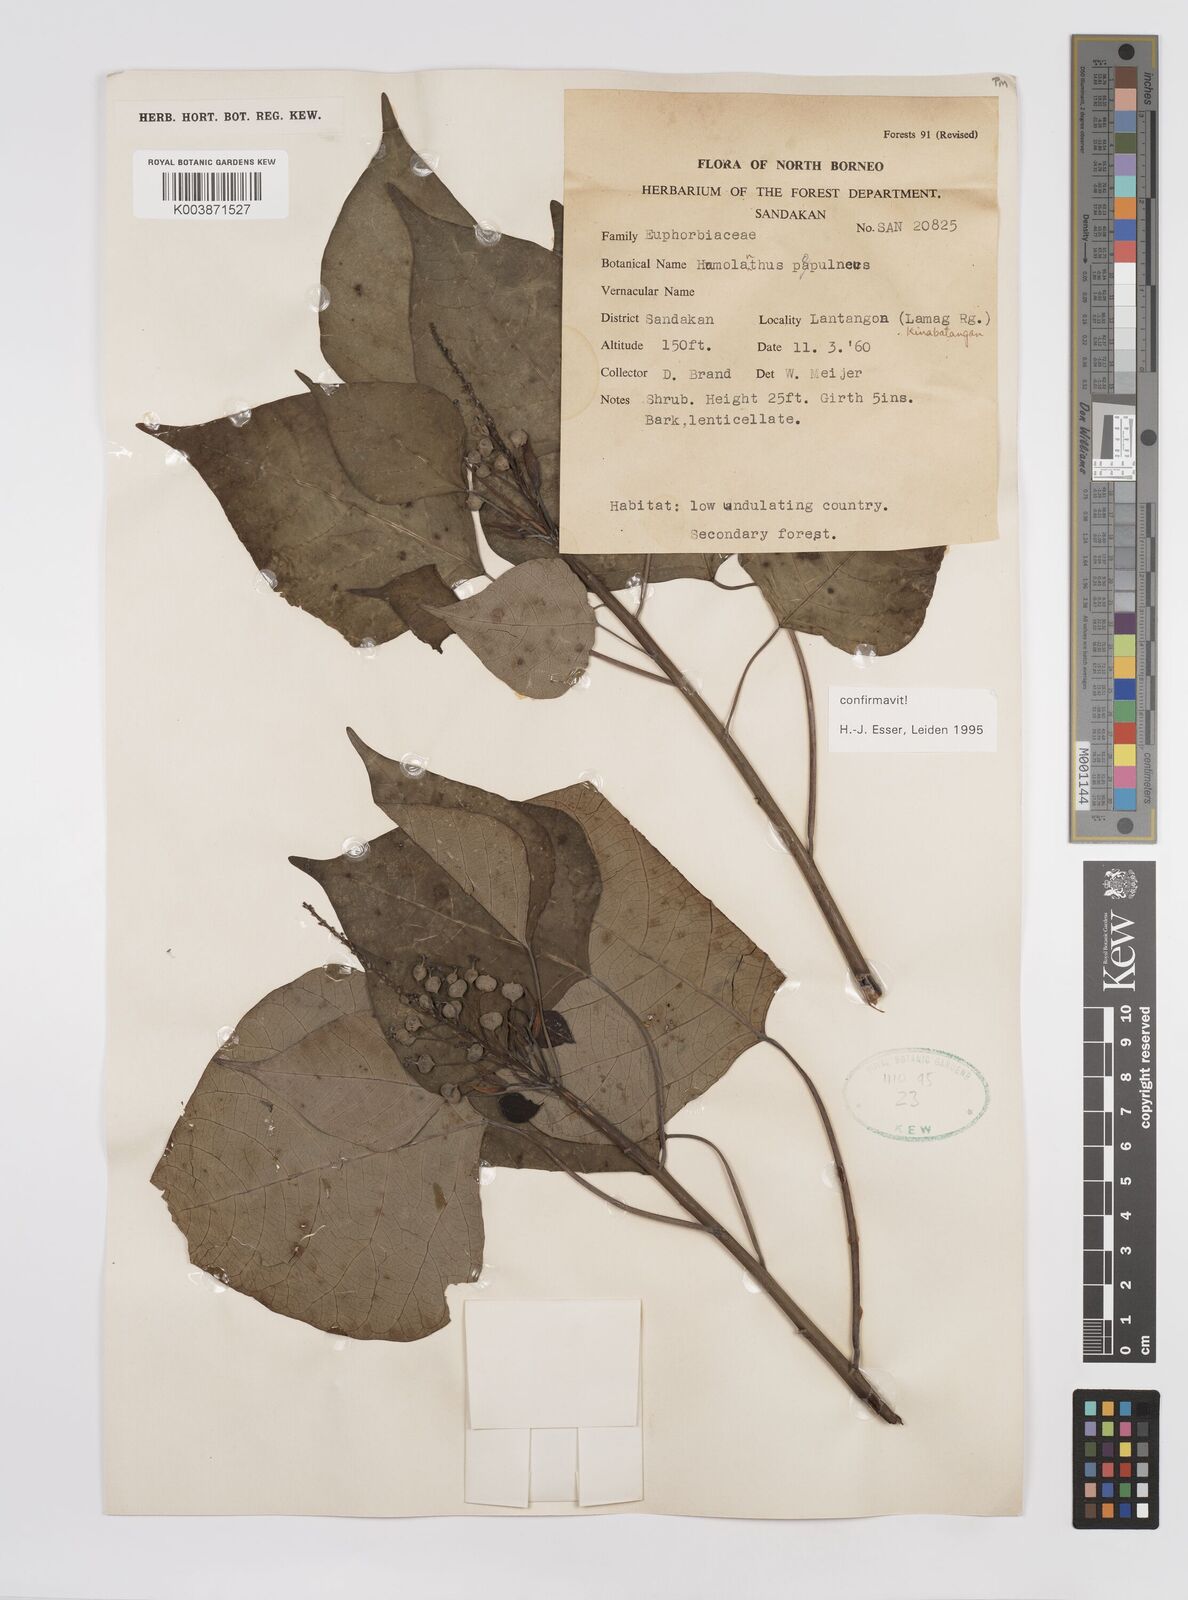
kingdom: Plantae
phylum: Tracheophyta
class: Magnoliopsida
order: Malpighiales
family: Euphorbiaceae
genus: Homalanthus
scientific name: Homalanthus populneus
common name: Spurge
